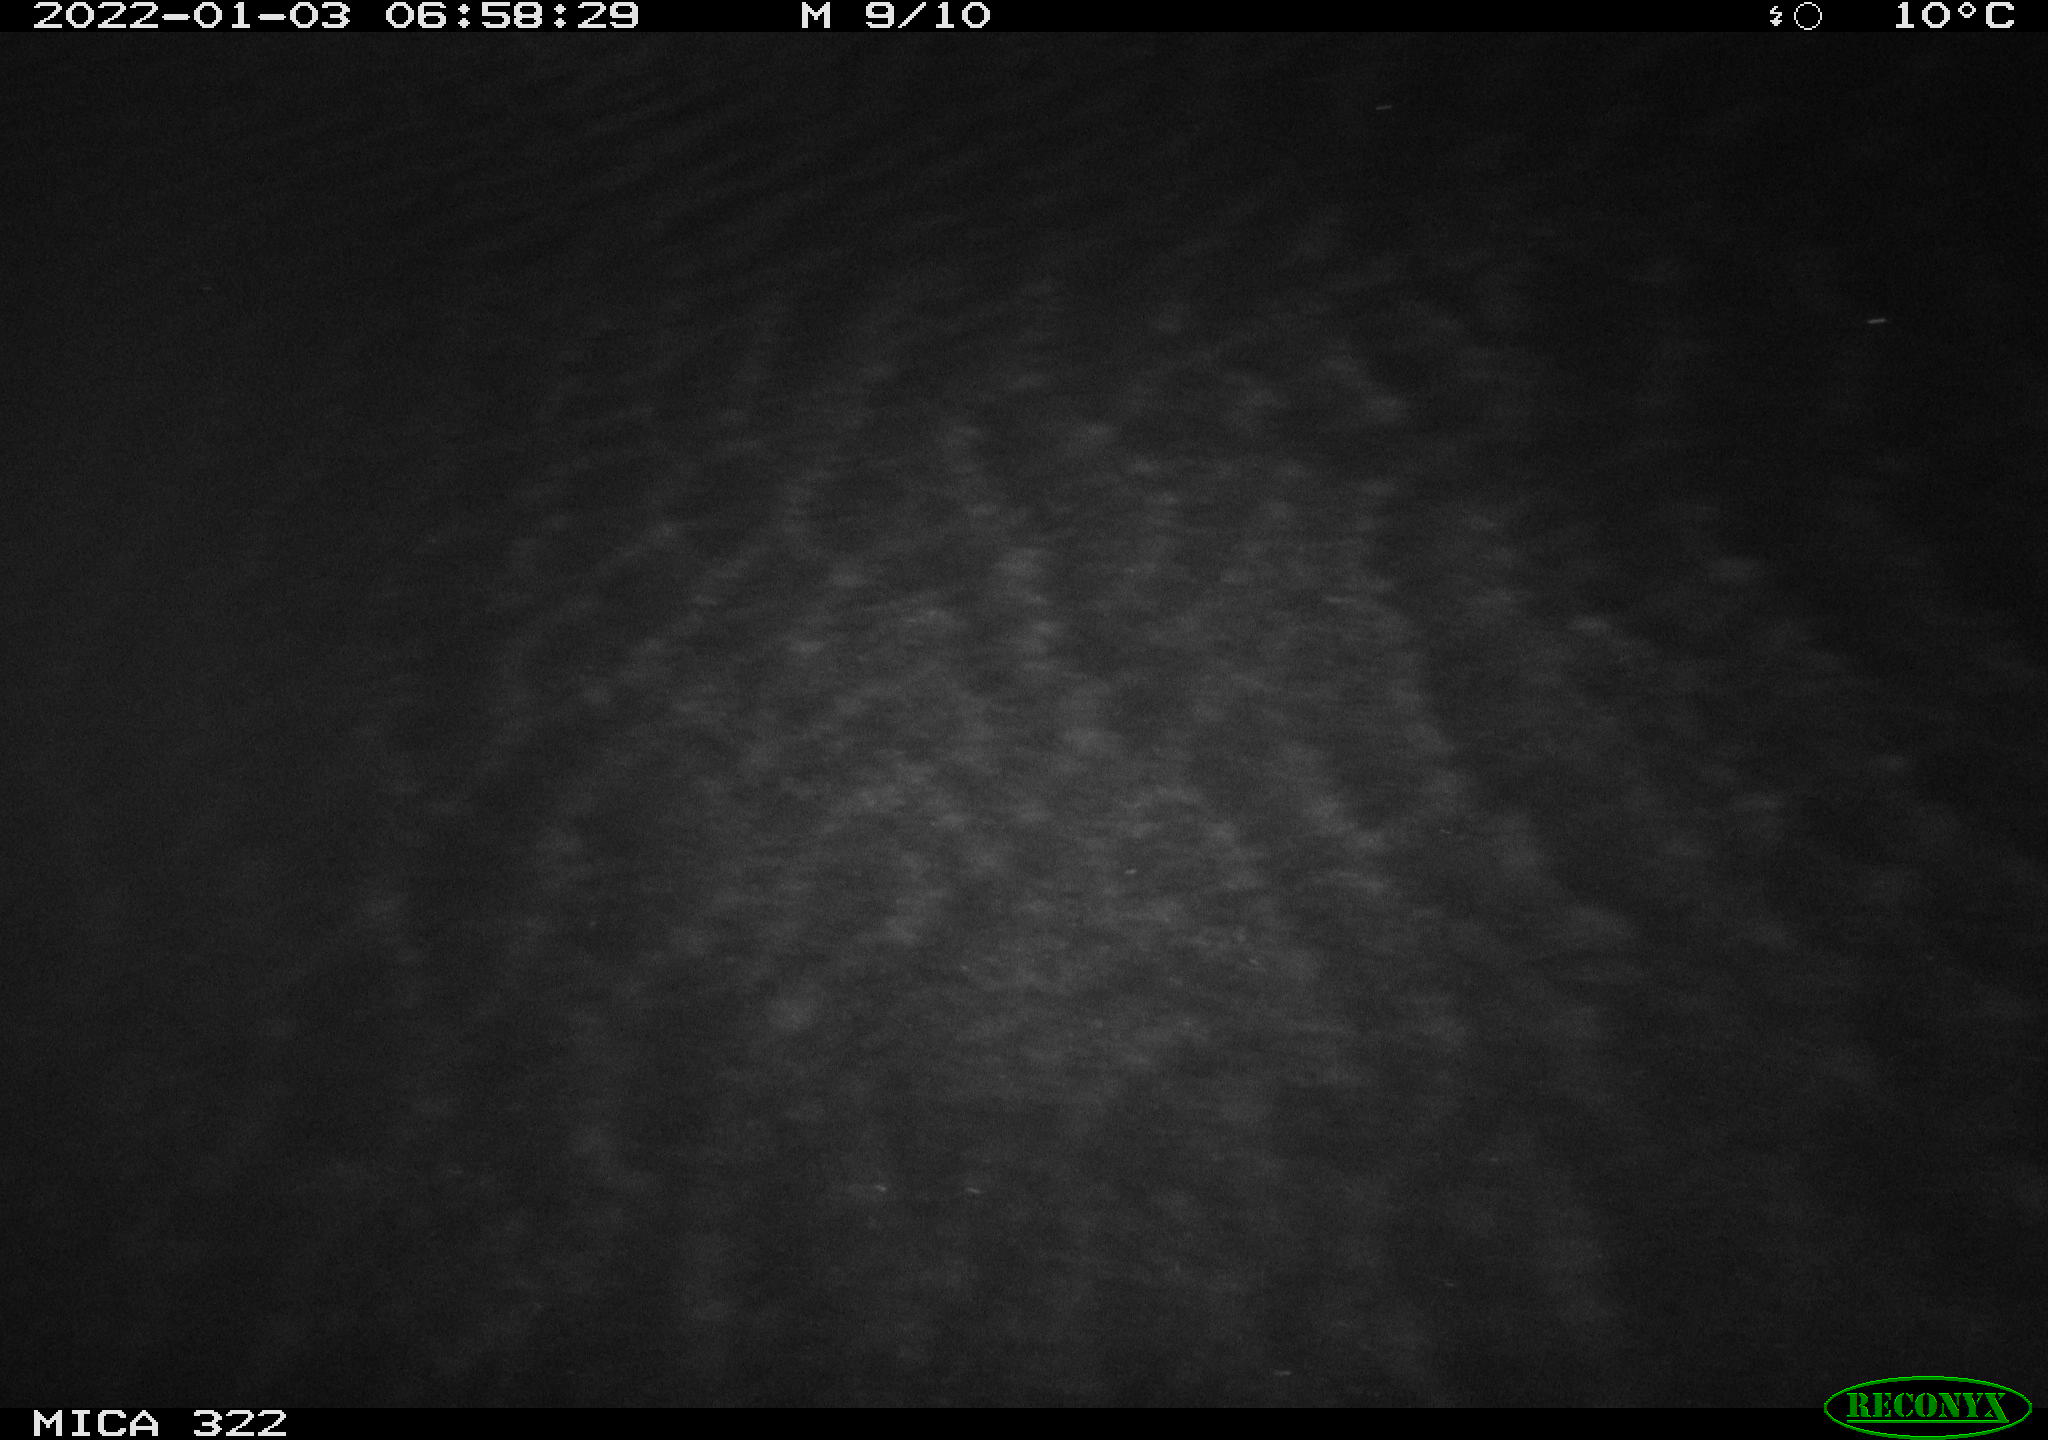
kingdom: Animalia
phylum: Chordata
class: Mammalia
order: Rodentia
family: Muridae
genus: Rattus
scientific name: Rattus norvegicus
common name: Brown rat
